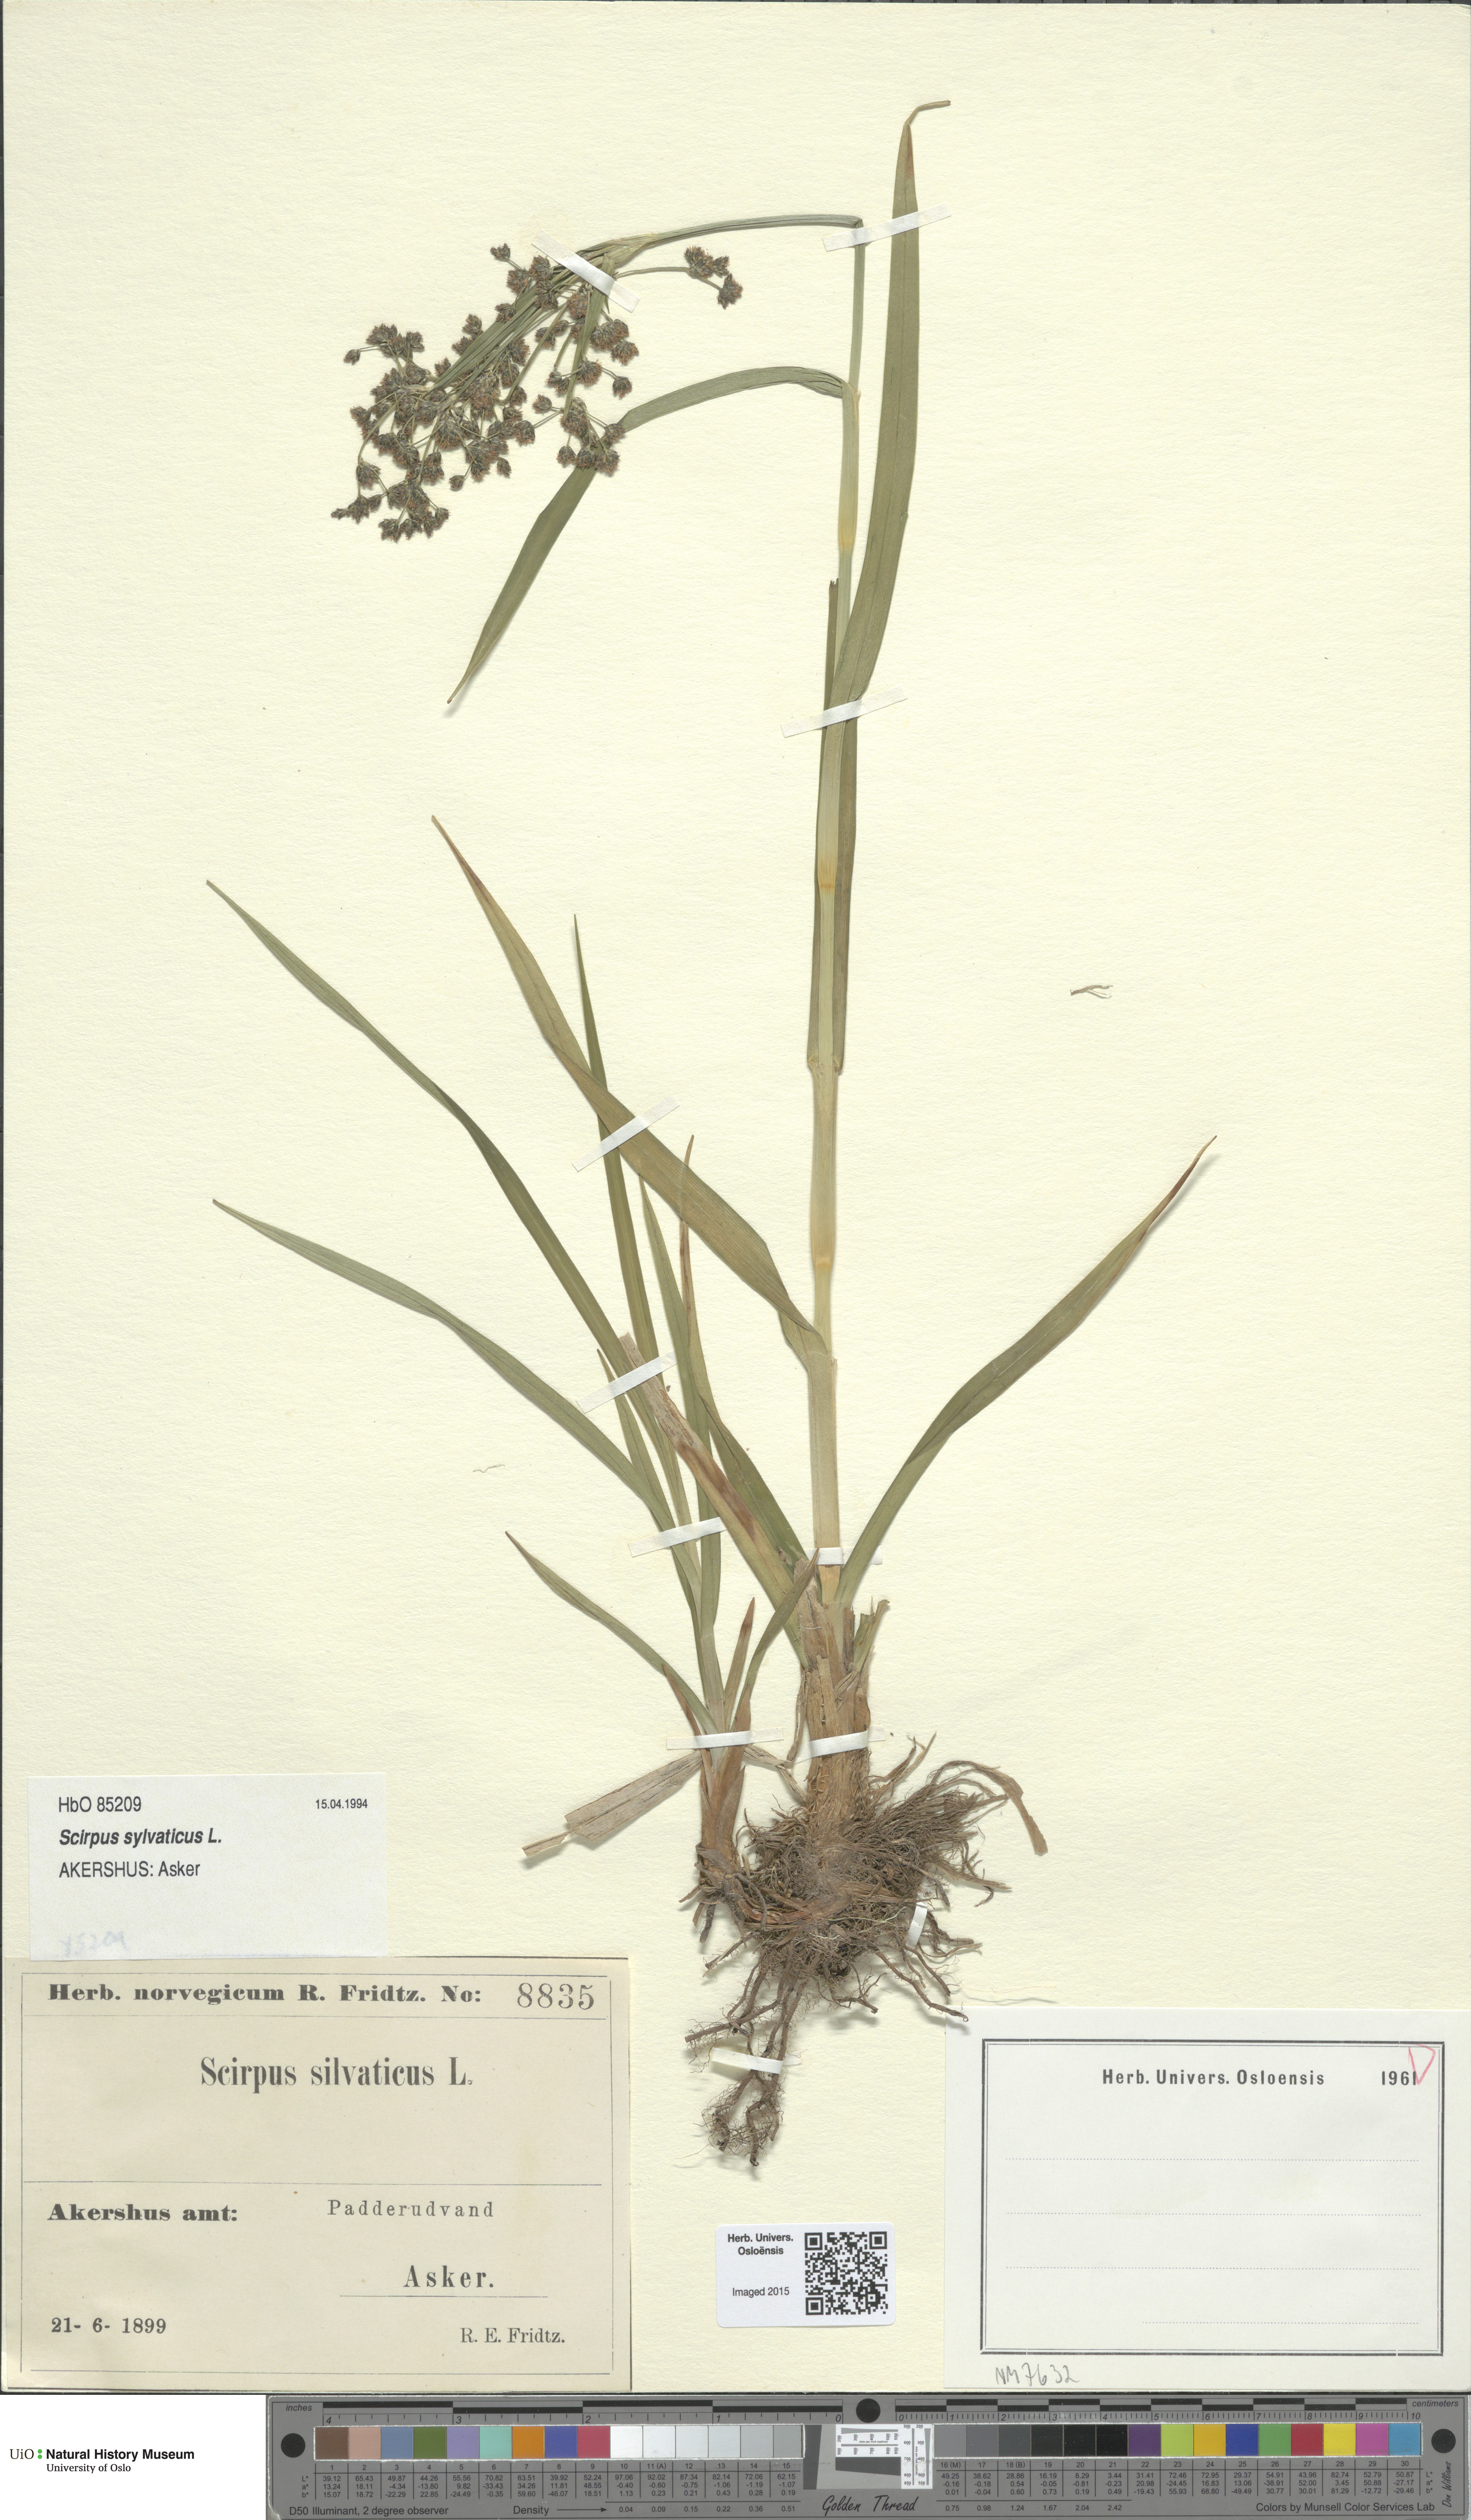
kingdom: Plantae
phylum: Tracheophyta
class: Liliopsida
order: Poales
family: Cyperaceae
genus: Scirpus
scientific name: Scirpus sylvaticus
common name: Wood club-rush
